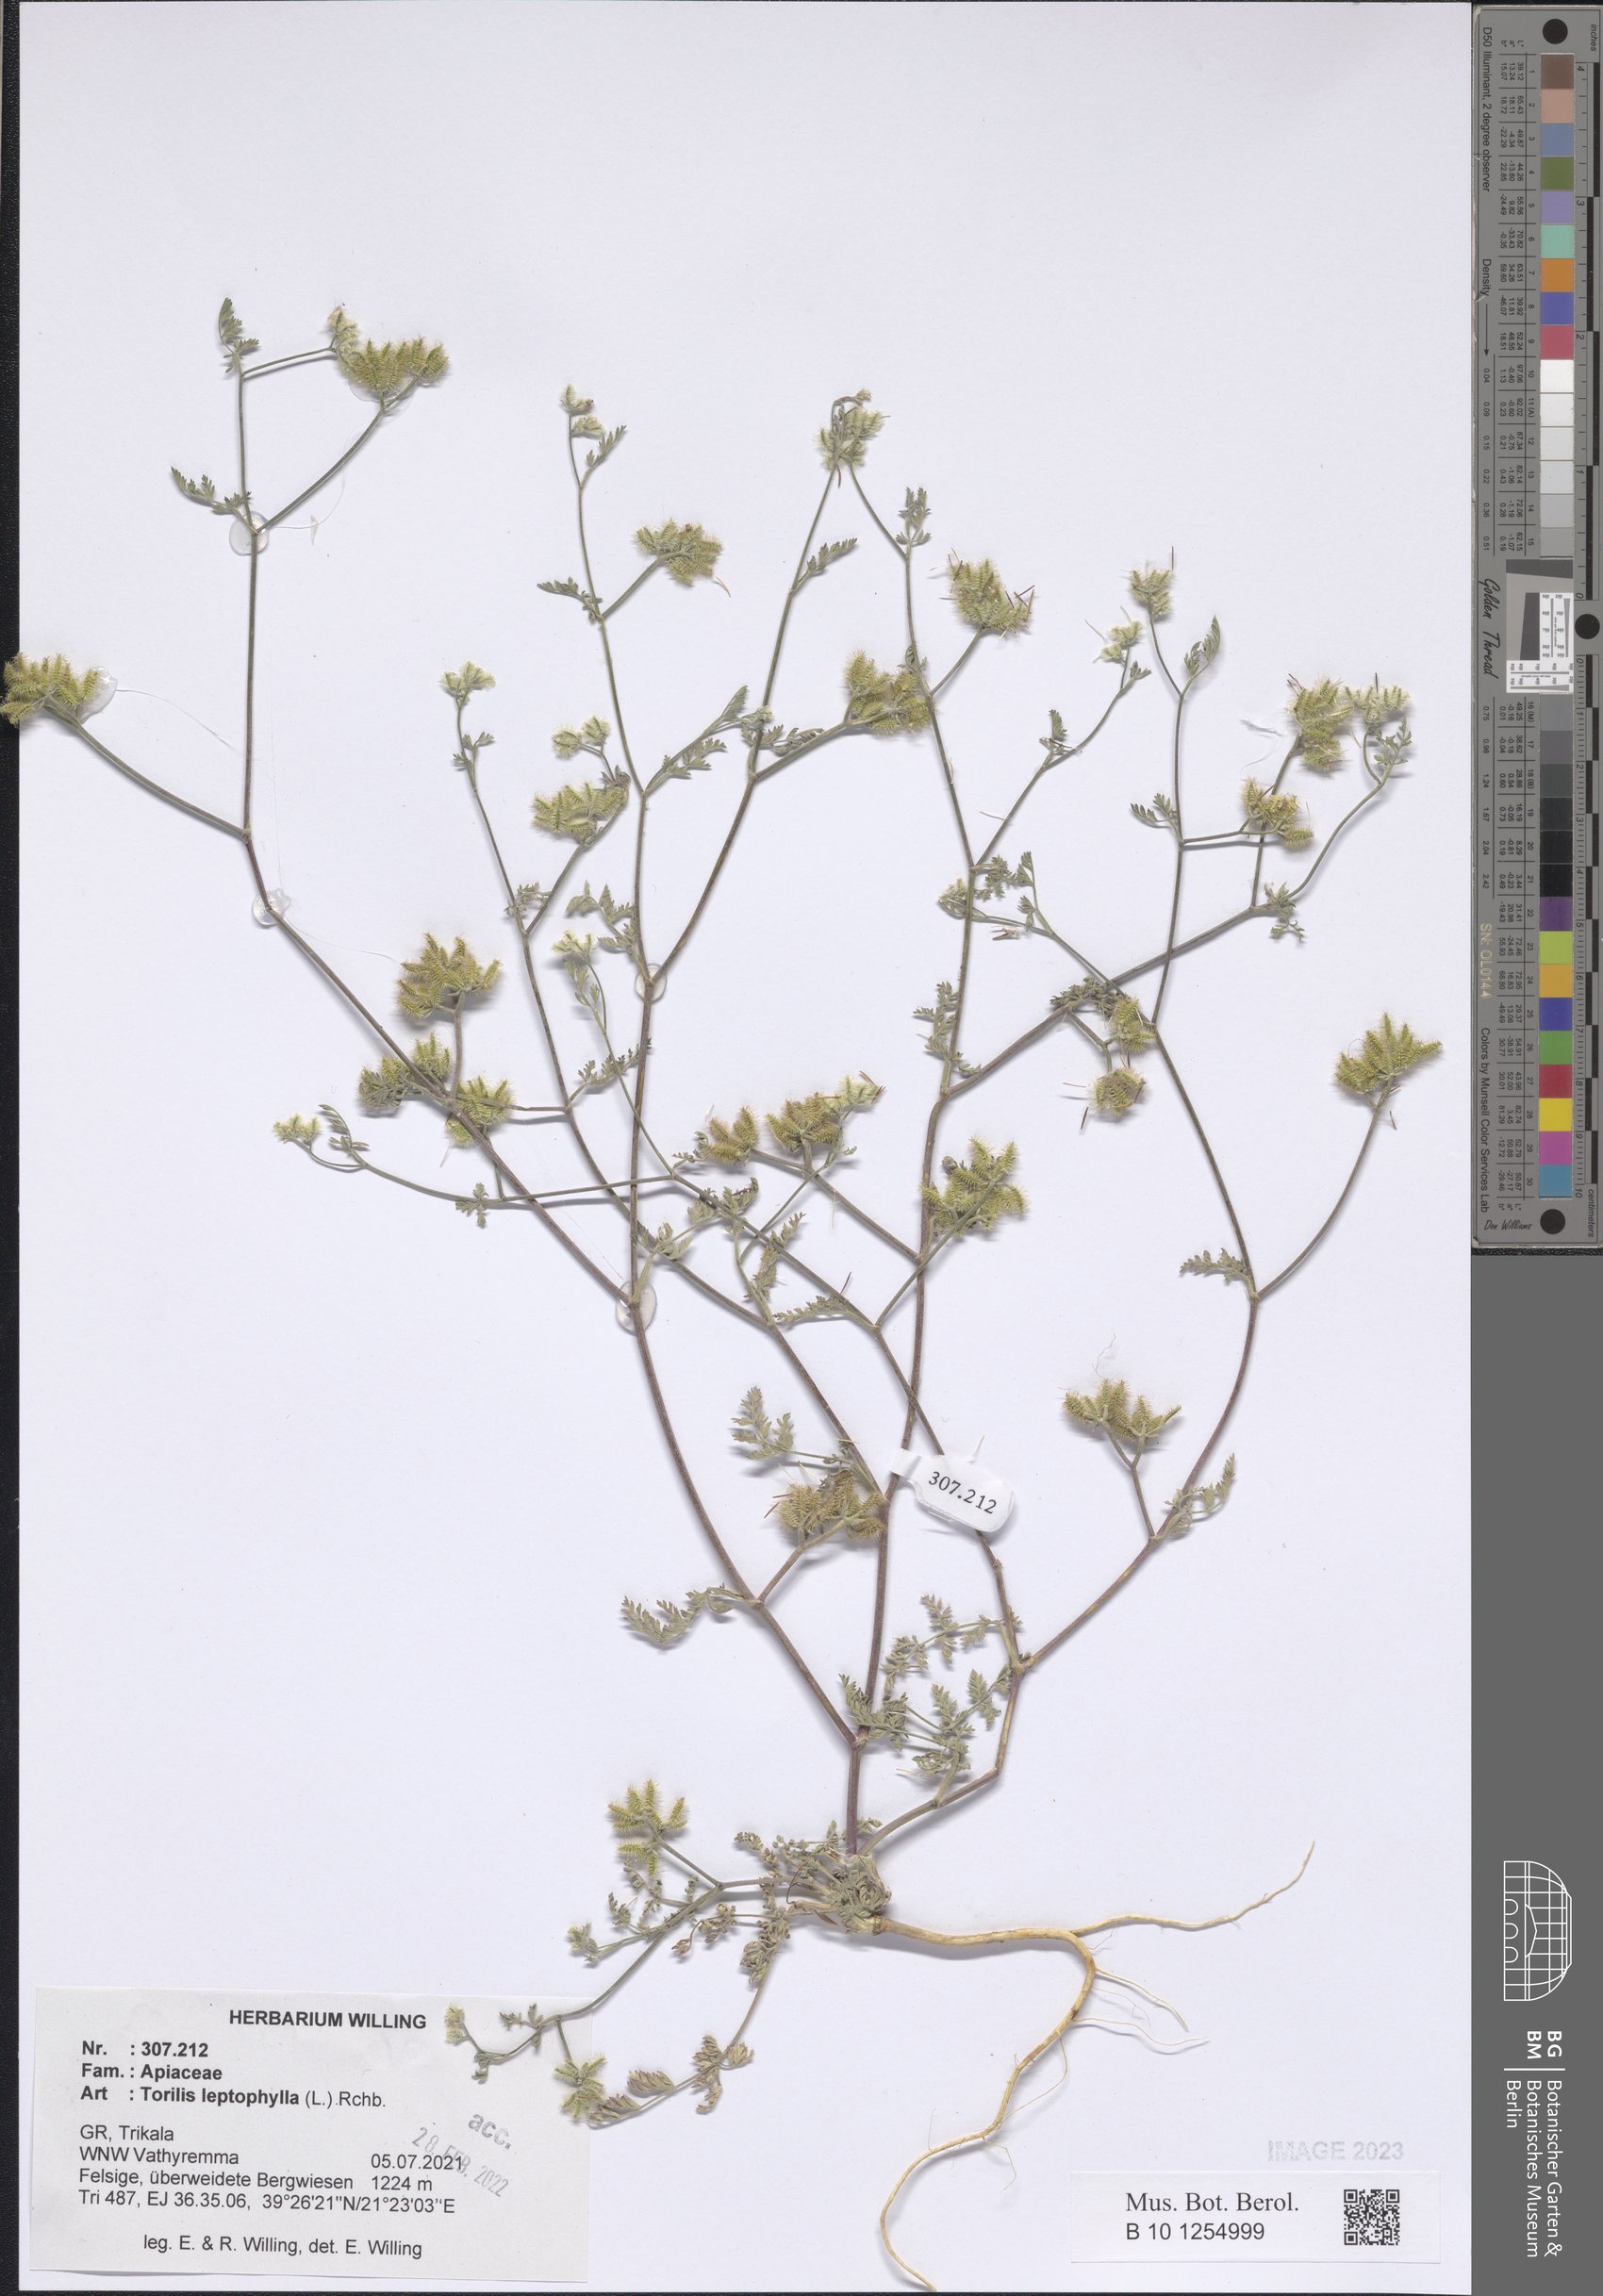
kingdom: Plantae
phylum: Tracheophyta
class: Magnoliopsida
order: Apiales
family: Apiaceae
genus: Torilis
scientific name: Torilis leptophylla
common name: Bristlefruit hedgeparsley
